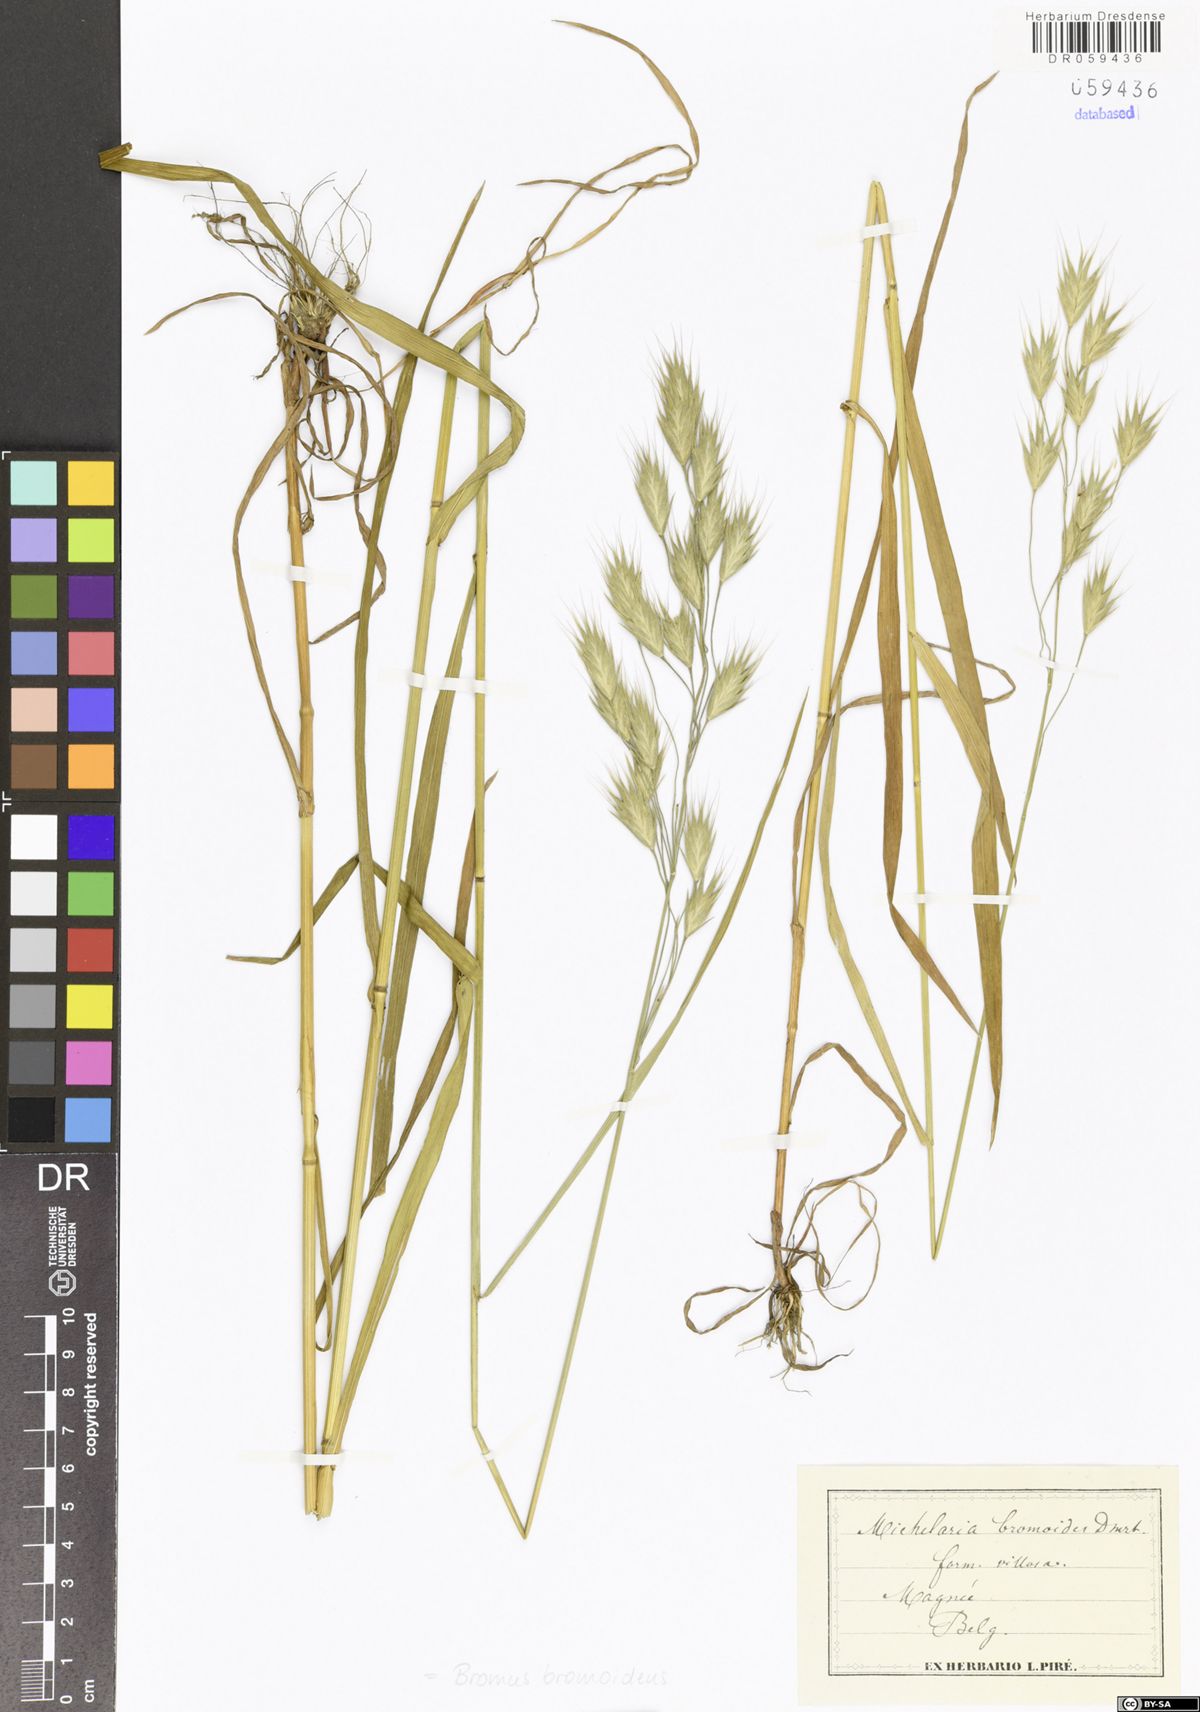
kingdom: Plantae
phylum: Tracheophyta
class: Liliopsida
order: Poales
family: Poaceae
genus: Bromus
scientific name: Bromus bromoideus
